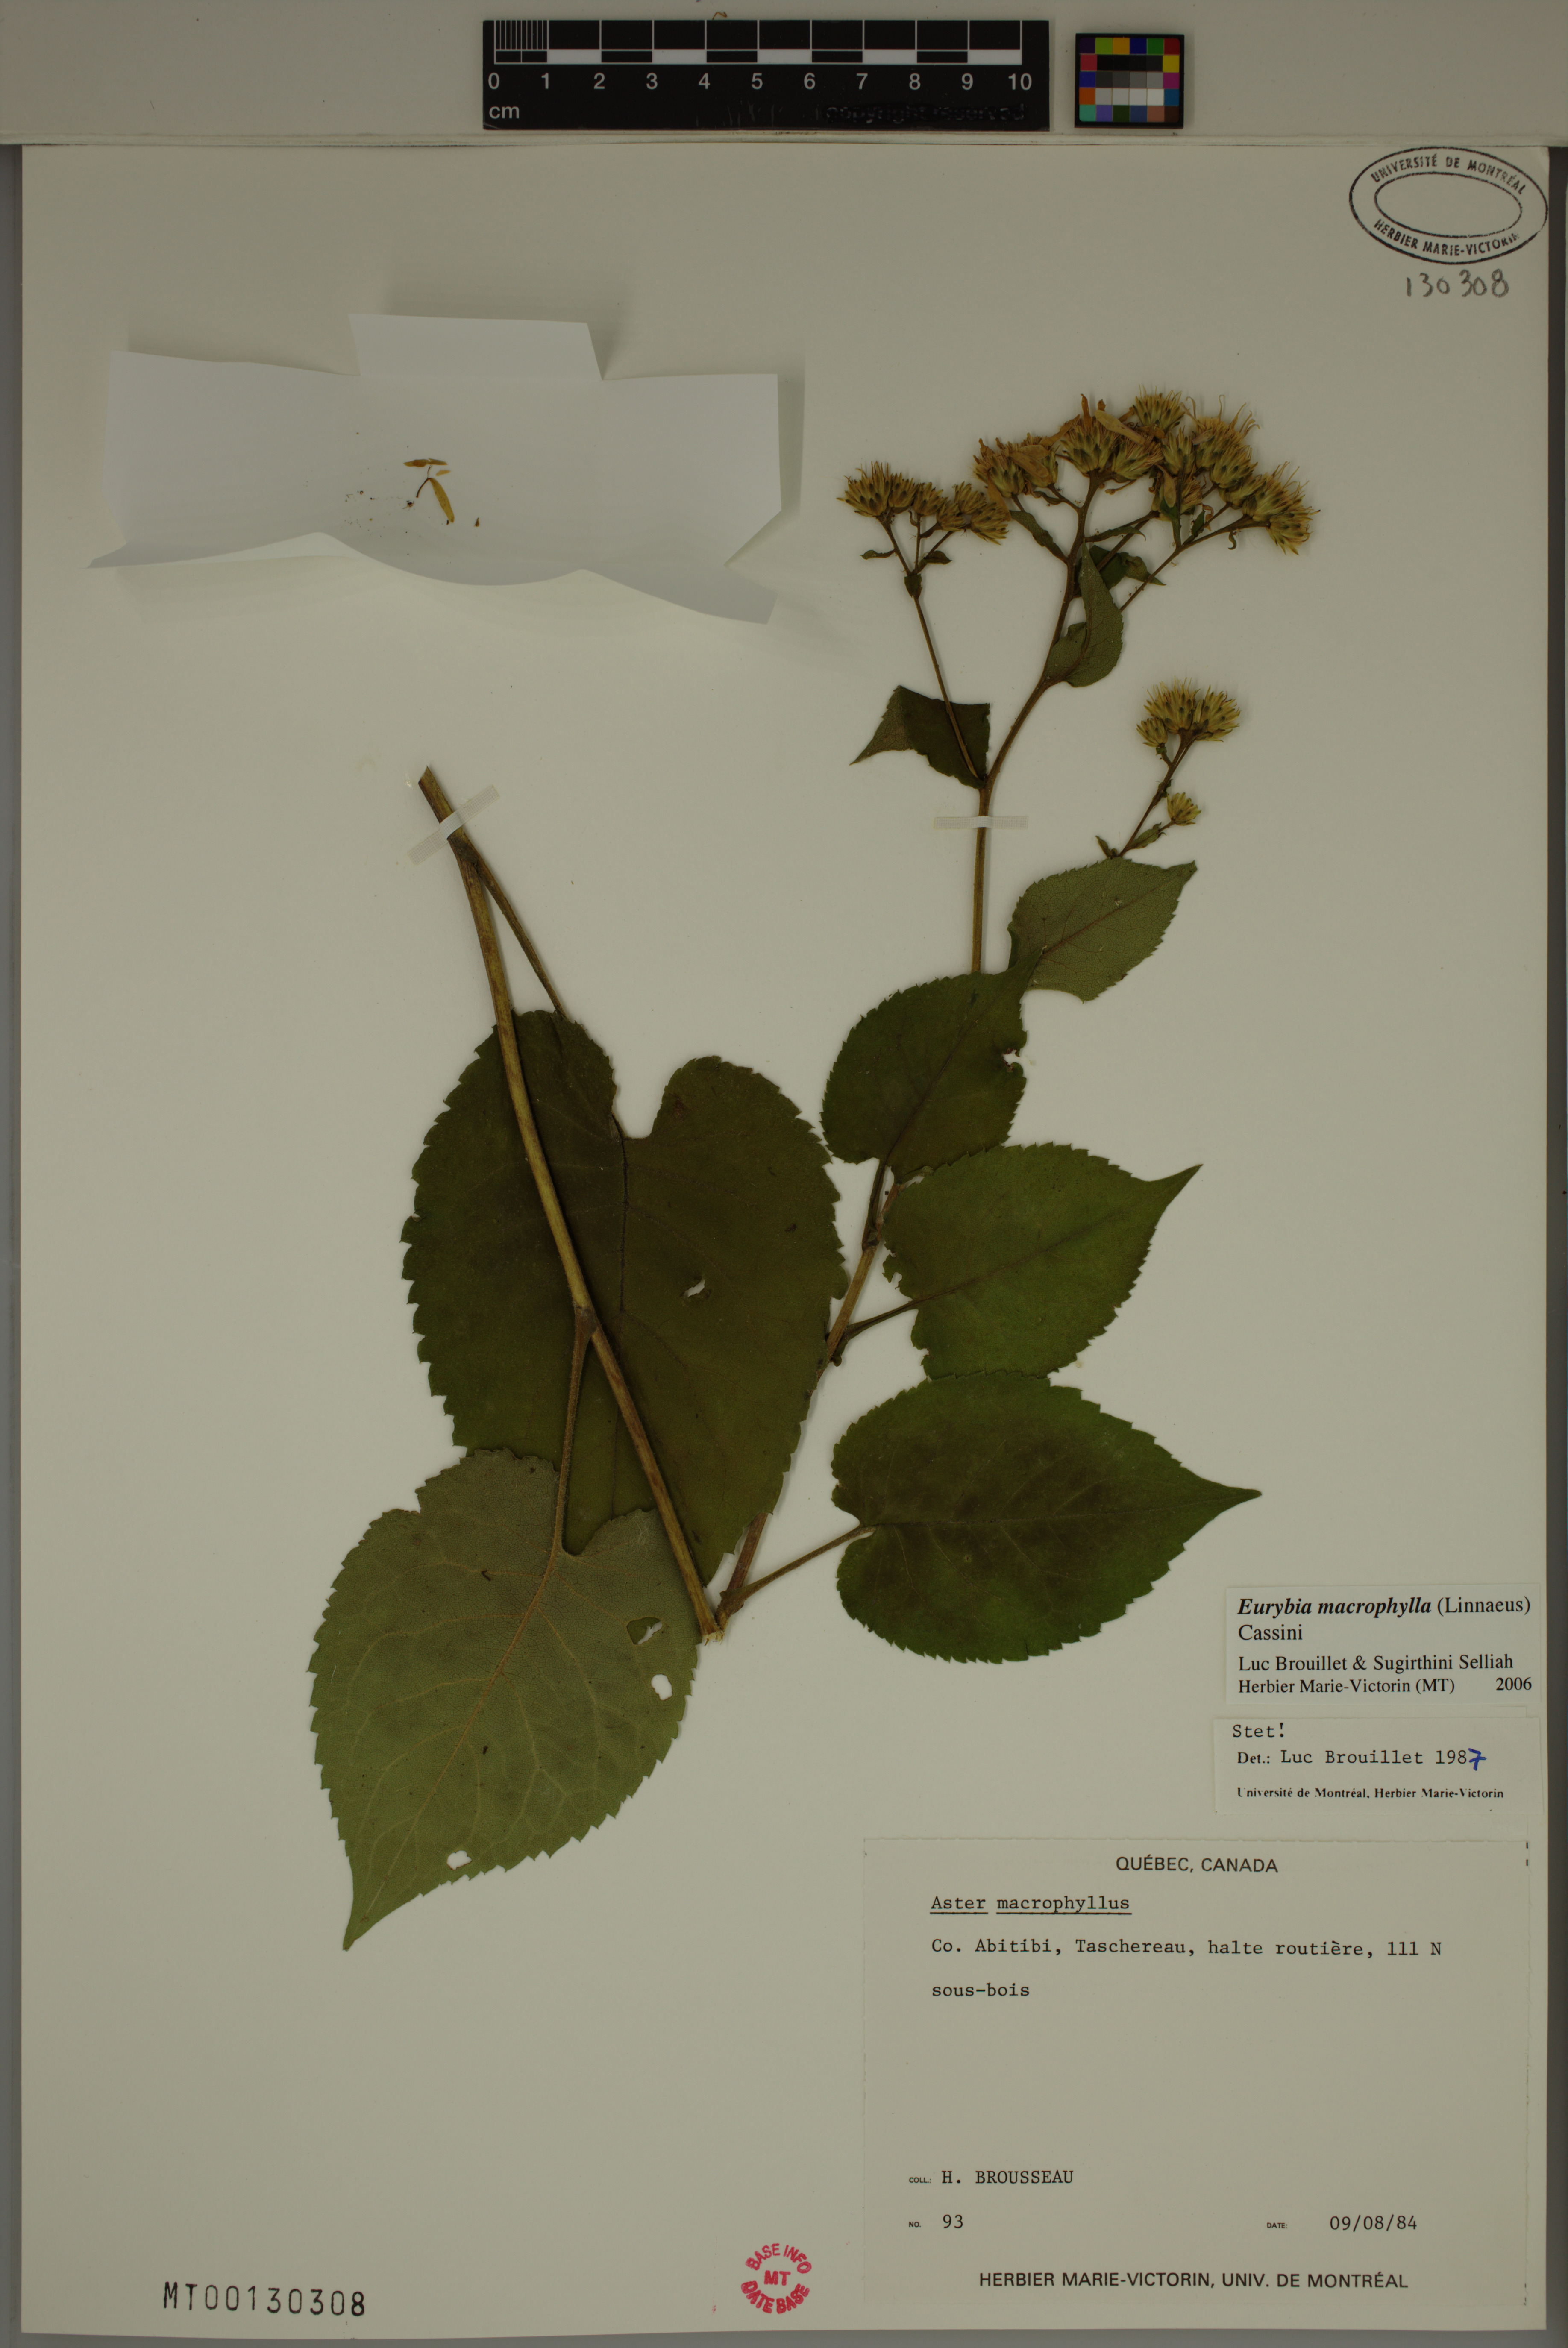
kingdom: Plantae
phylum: Tracheophyta
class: Magnoliopsida
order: Asterales
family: Asteraceae
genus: Eurybia
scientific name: Eurybia macrophylla
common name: Big-leaved aster
